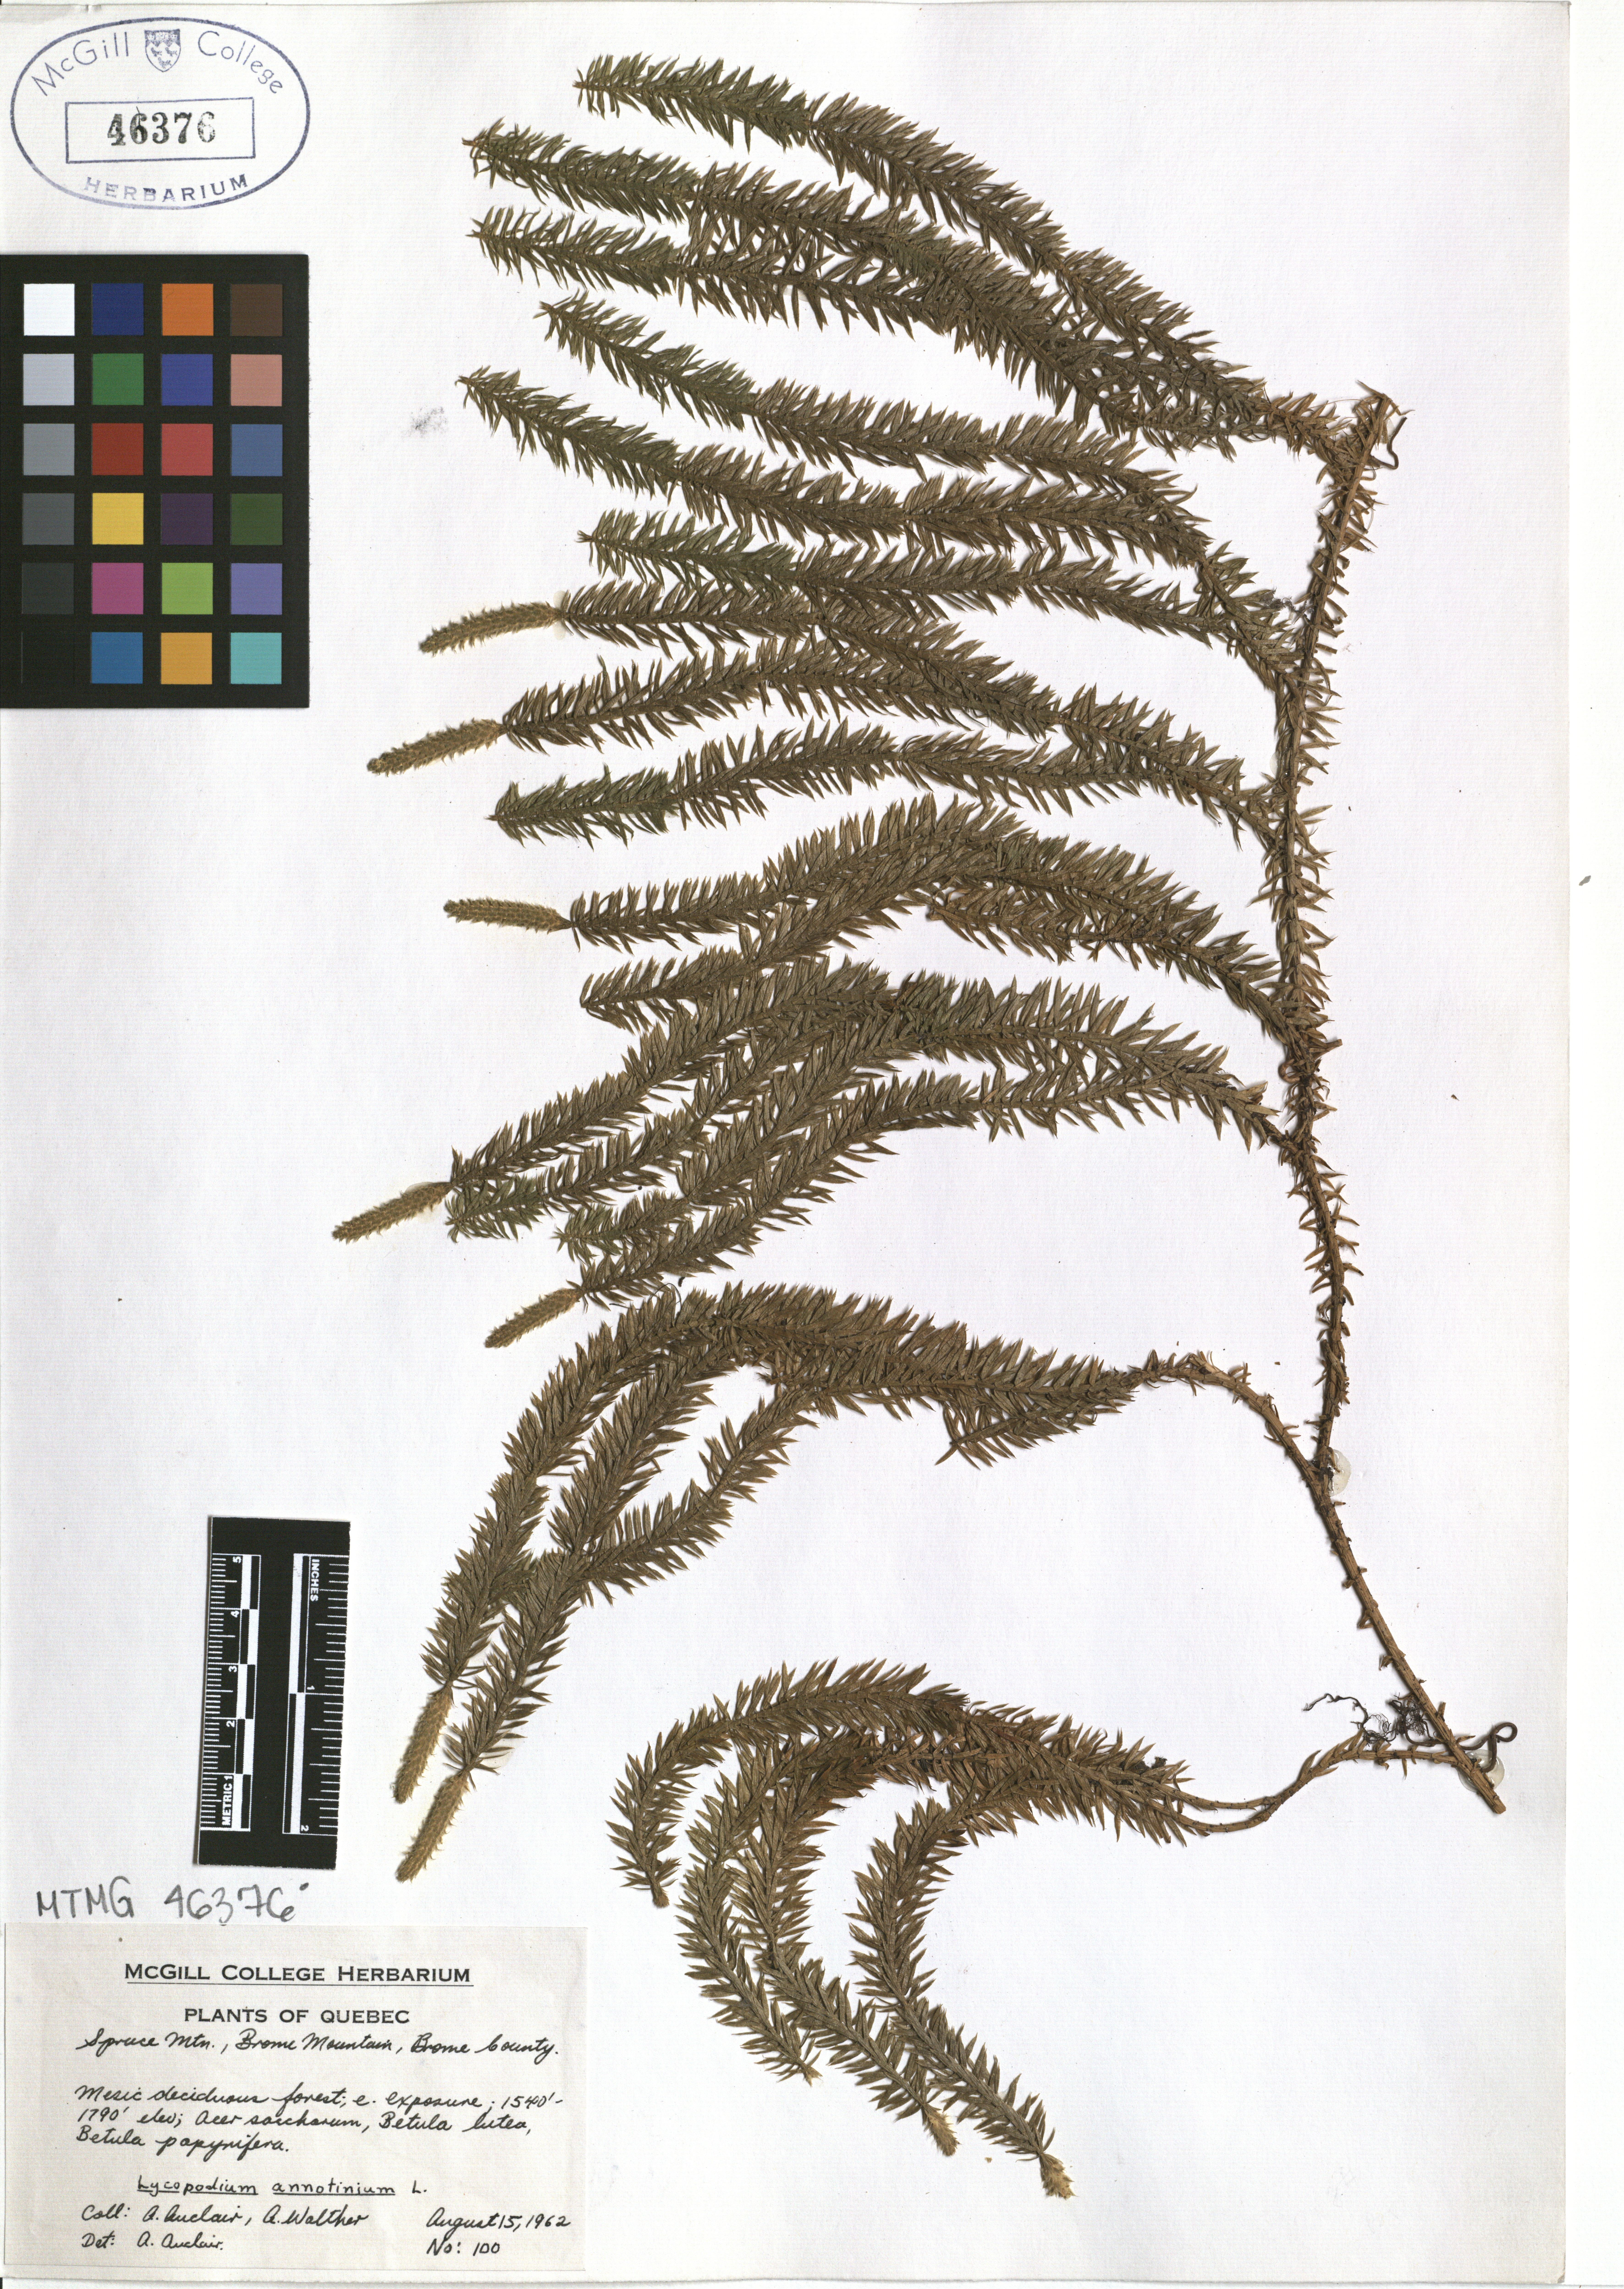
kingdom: Plantae
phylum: Tracheophyta
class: Lycopodiopsida
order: Lycopodiales
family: Lycopodiaceae
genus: Spinulum
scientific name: Spinulum annotinum
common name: Interrupted club-moss
